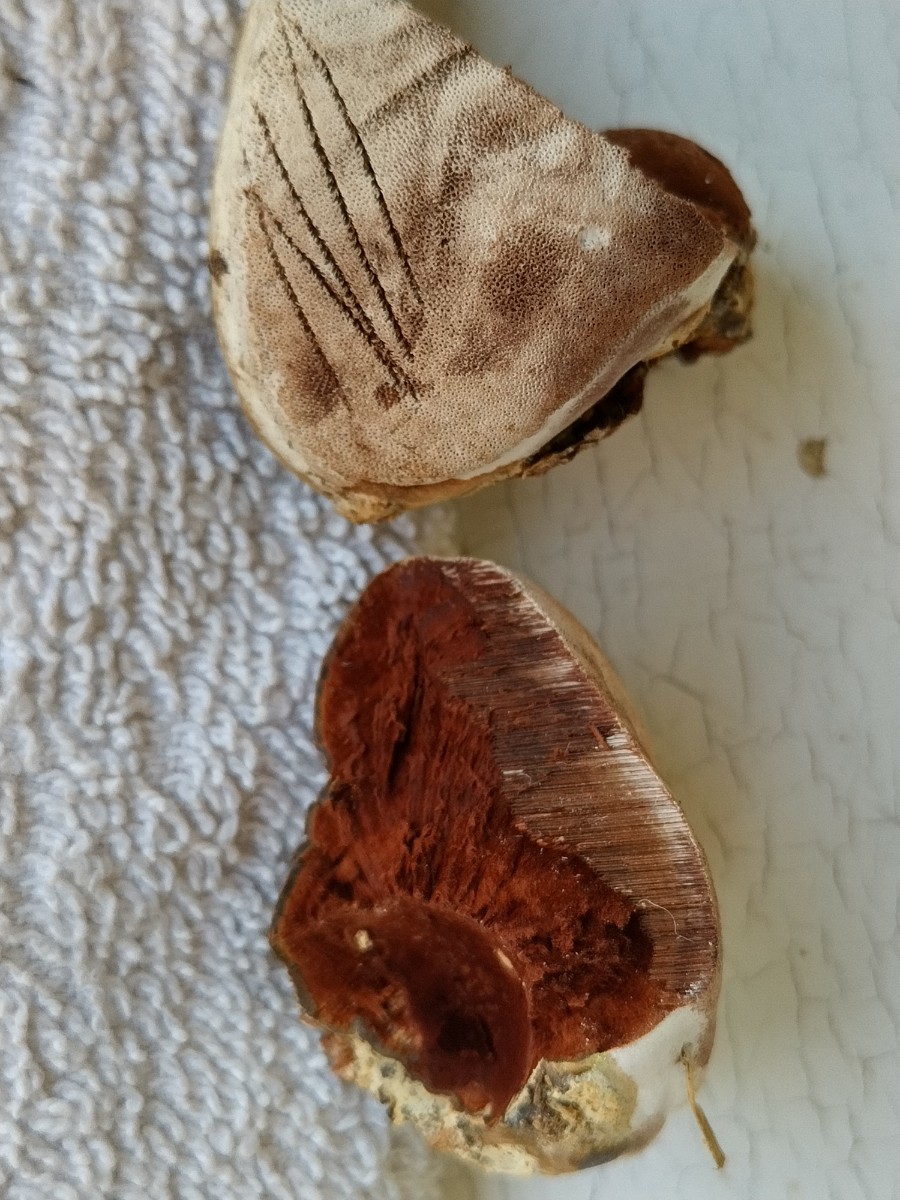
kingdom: Fungi
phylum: Basidiomycota
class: Agaricomycetes
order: Polyporales
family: Polyporaceae
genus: Fomes
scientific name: Fomes fomentarius
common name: tøndersvamp
